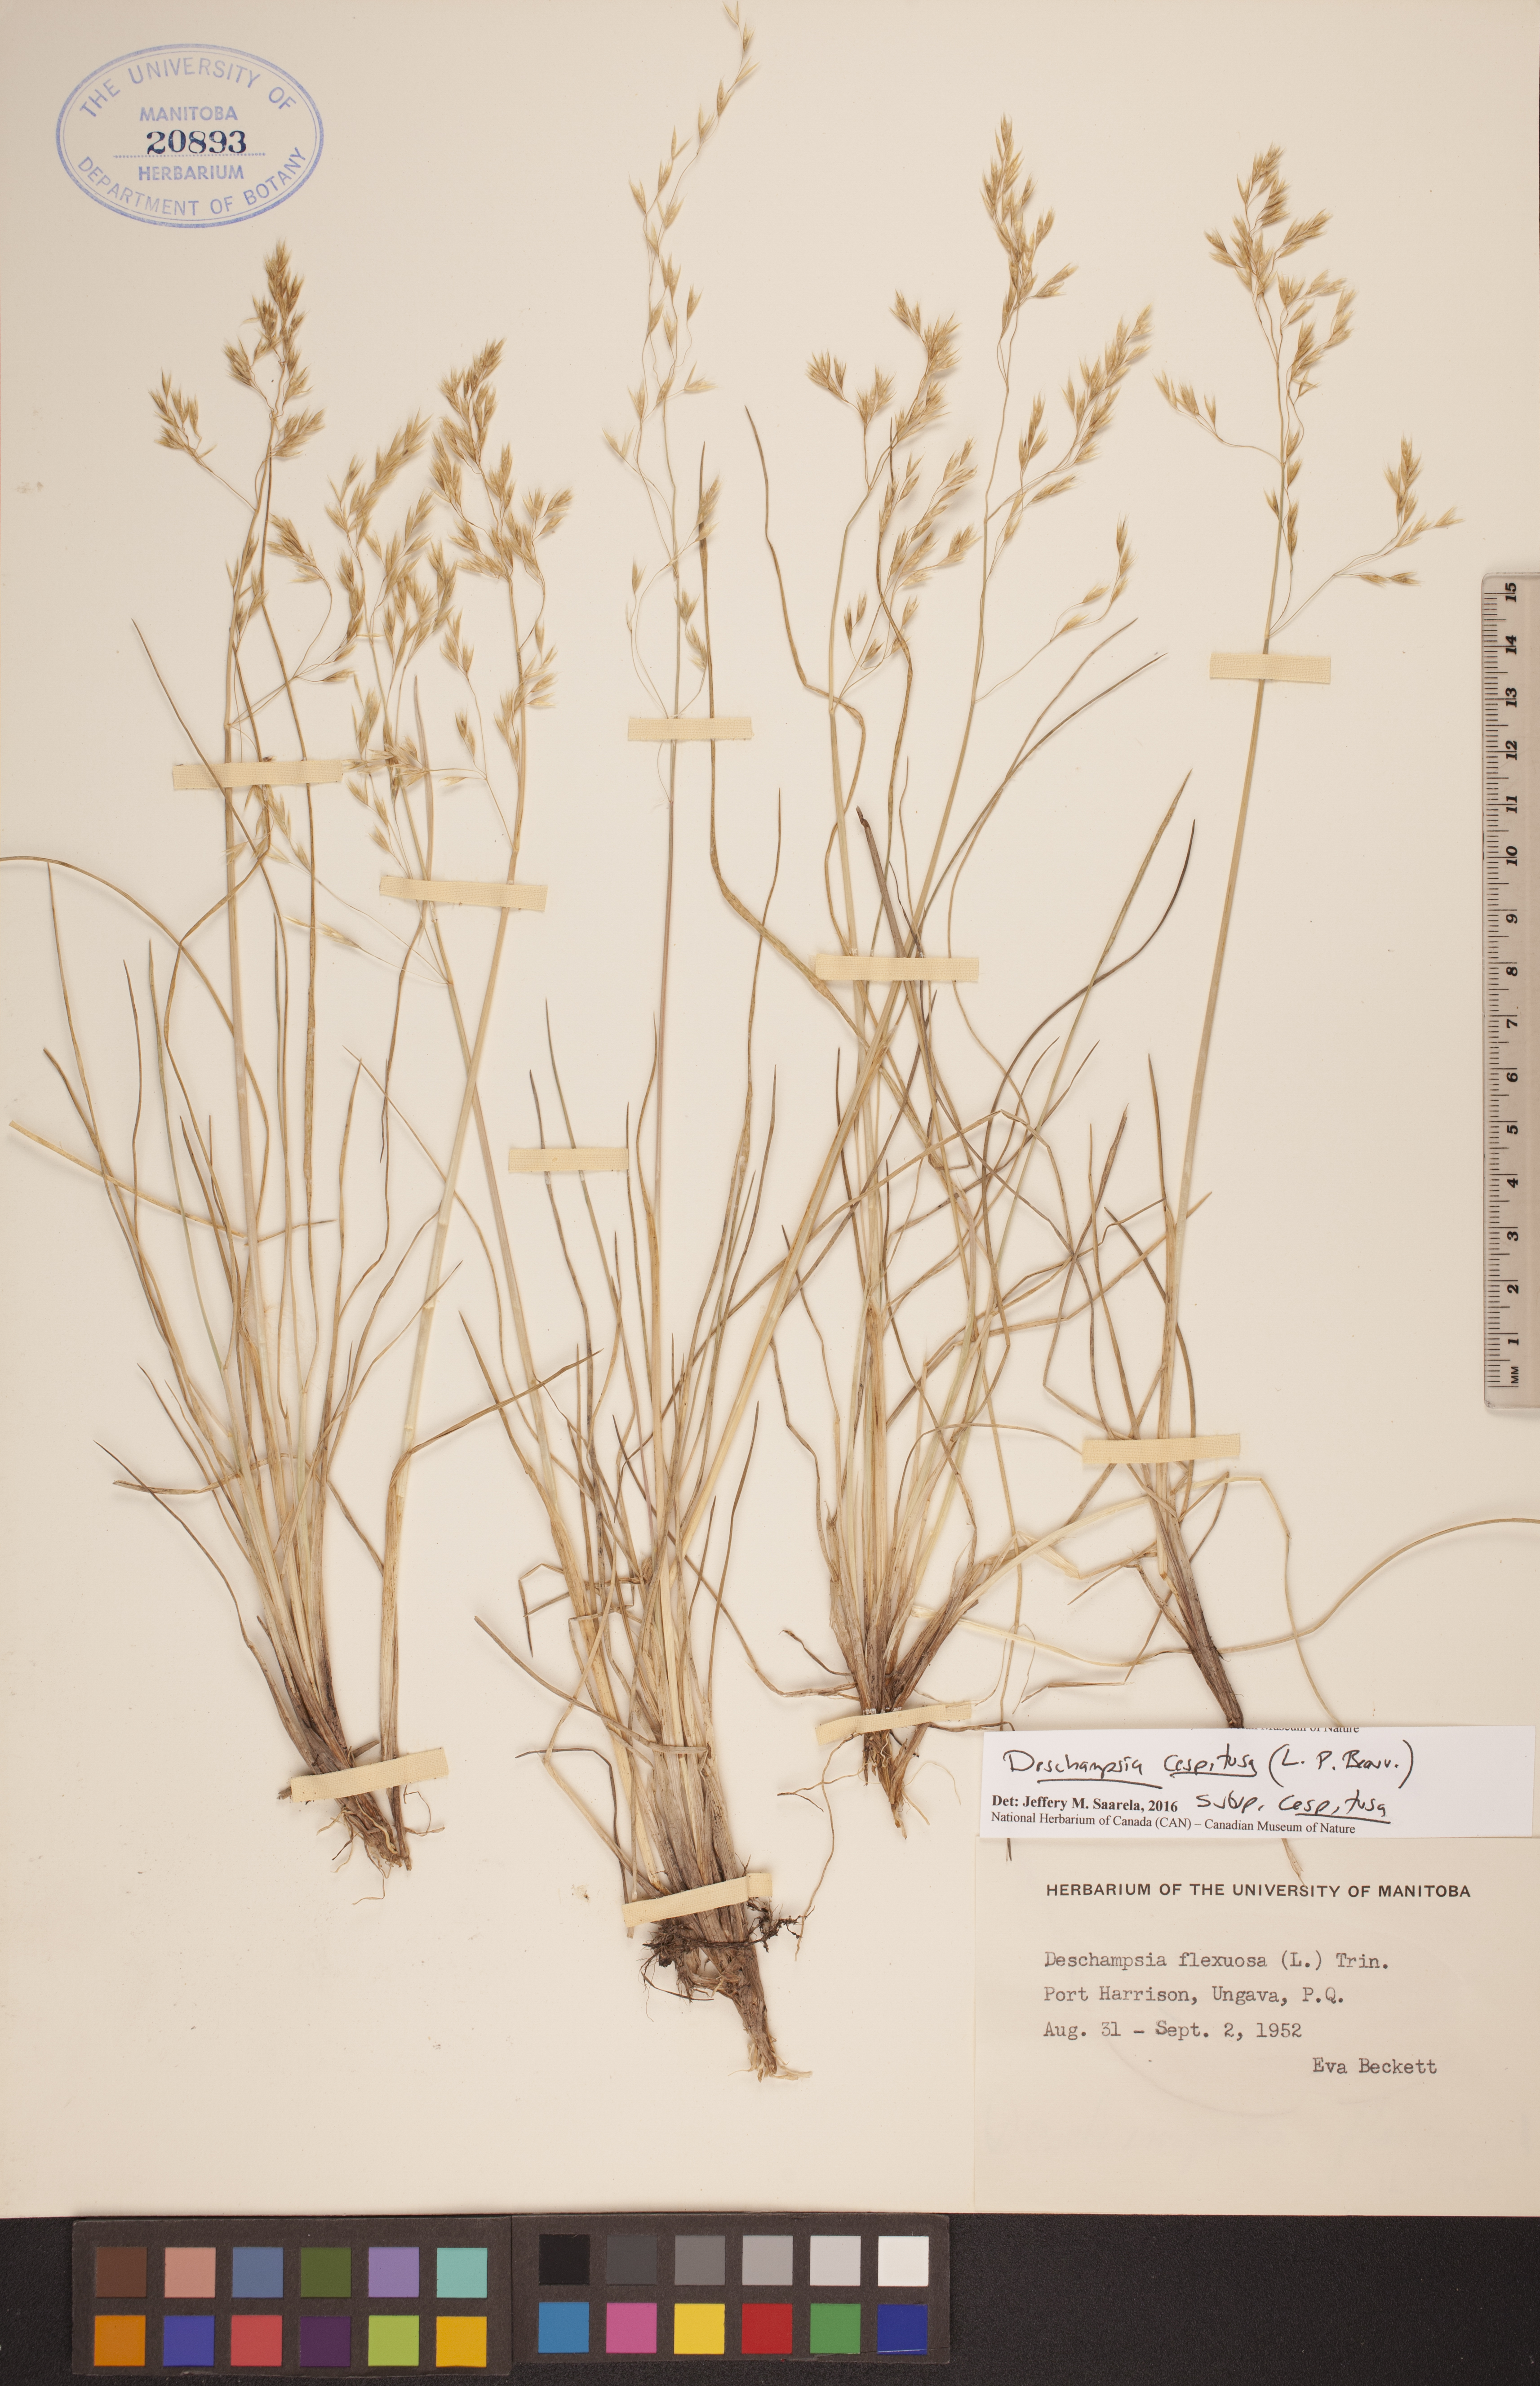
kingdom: Plantae
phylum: Tracheophyta
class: Liliopsida
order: Poales
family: Poaceae
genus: Deschampsia
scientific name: Deschampsia cespitosa
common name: Tufted hair-grass
